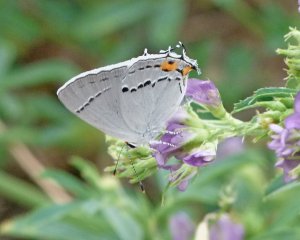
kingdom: Animalia
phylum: Arthropoda
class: Insecta
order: Lepidoptera
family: Lycaenidae
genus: Strymon
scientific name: Strymon melinus
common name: Gray Hairstreak
